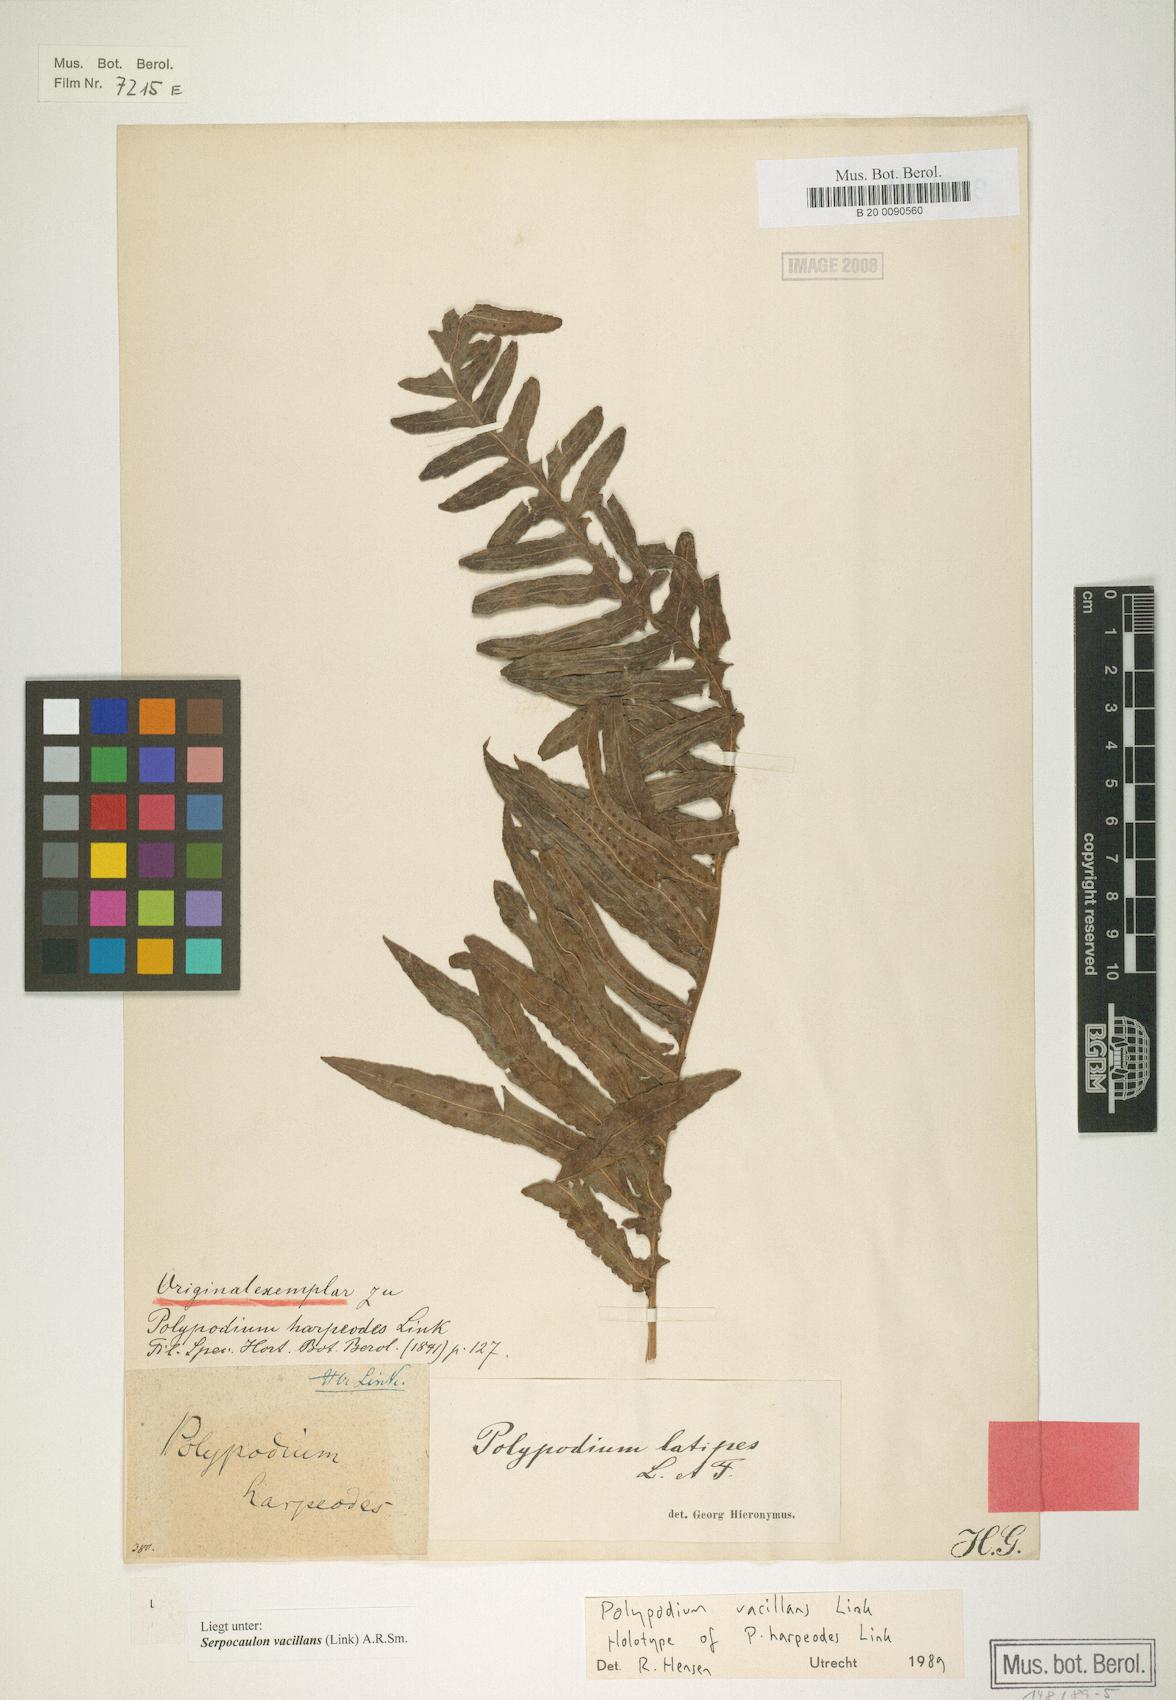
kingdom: Plantae
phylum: Tracheophyta
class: Polypodiopsida
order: Polypodiales
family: Polypodiaceae
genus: Serpocaulon
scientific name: Serpocaulon vacillans
